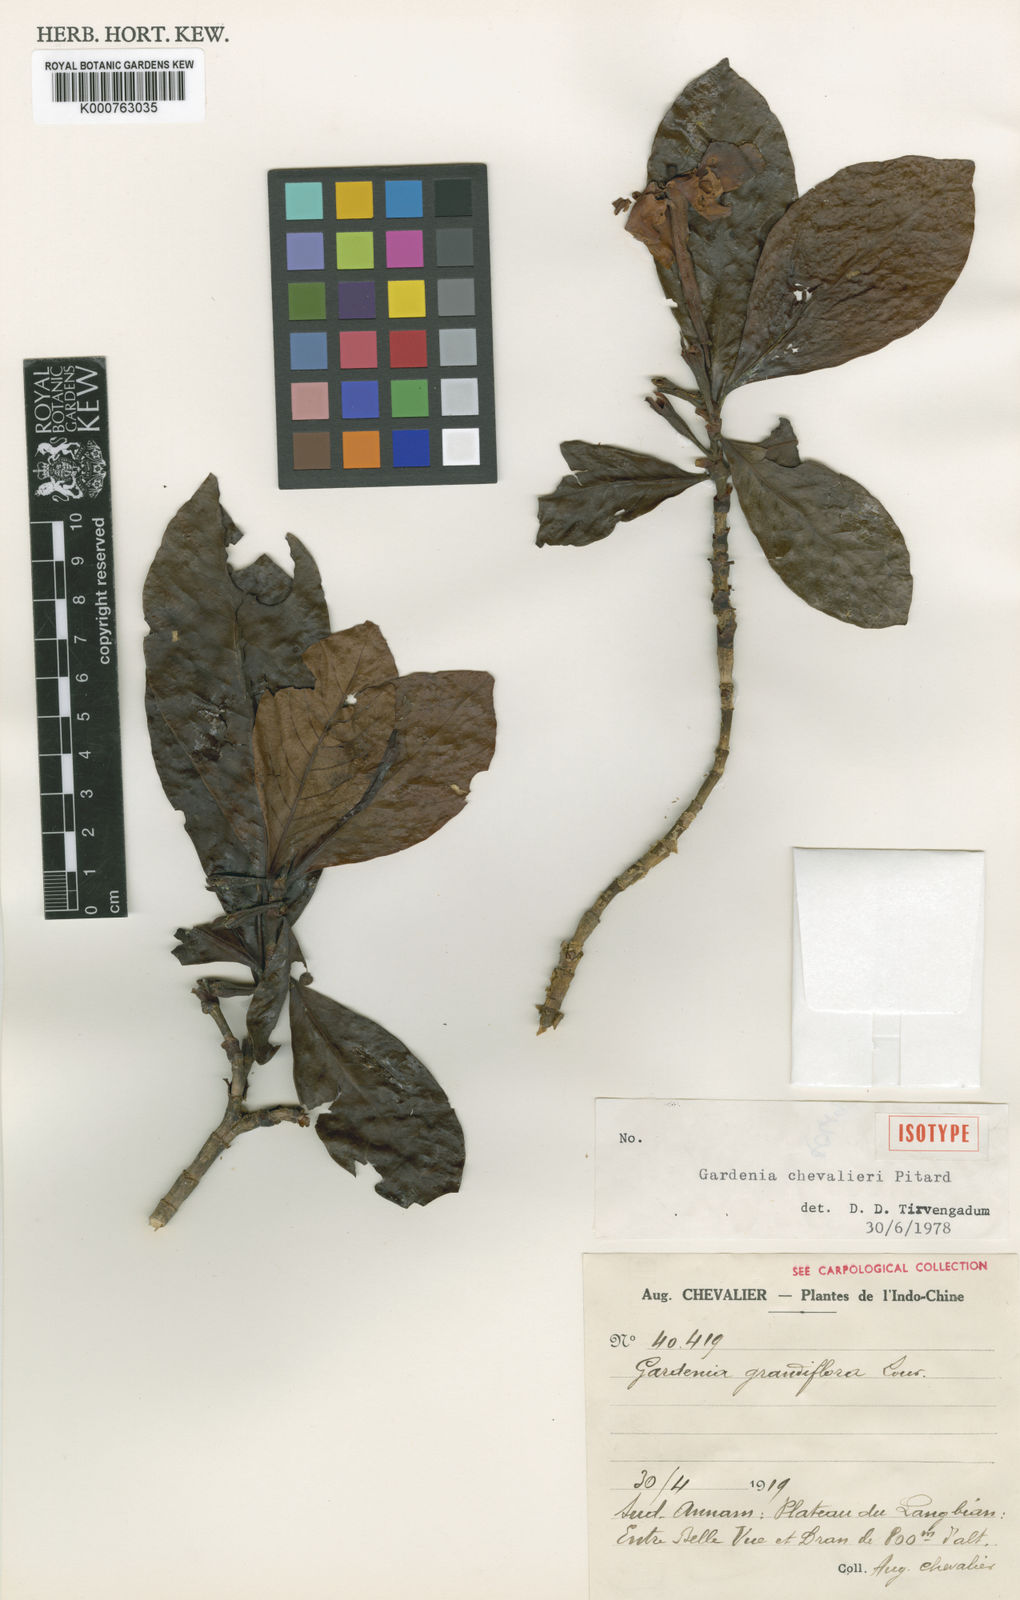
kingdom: Plantae
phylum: Tracheophyta
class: Magnoliopsida
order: Gentianales
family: Rubiaceae
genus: Gardenia
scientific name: Gardenia chevalieri
